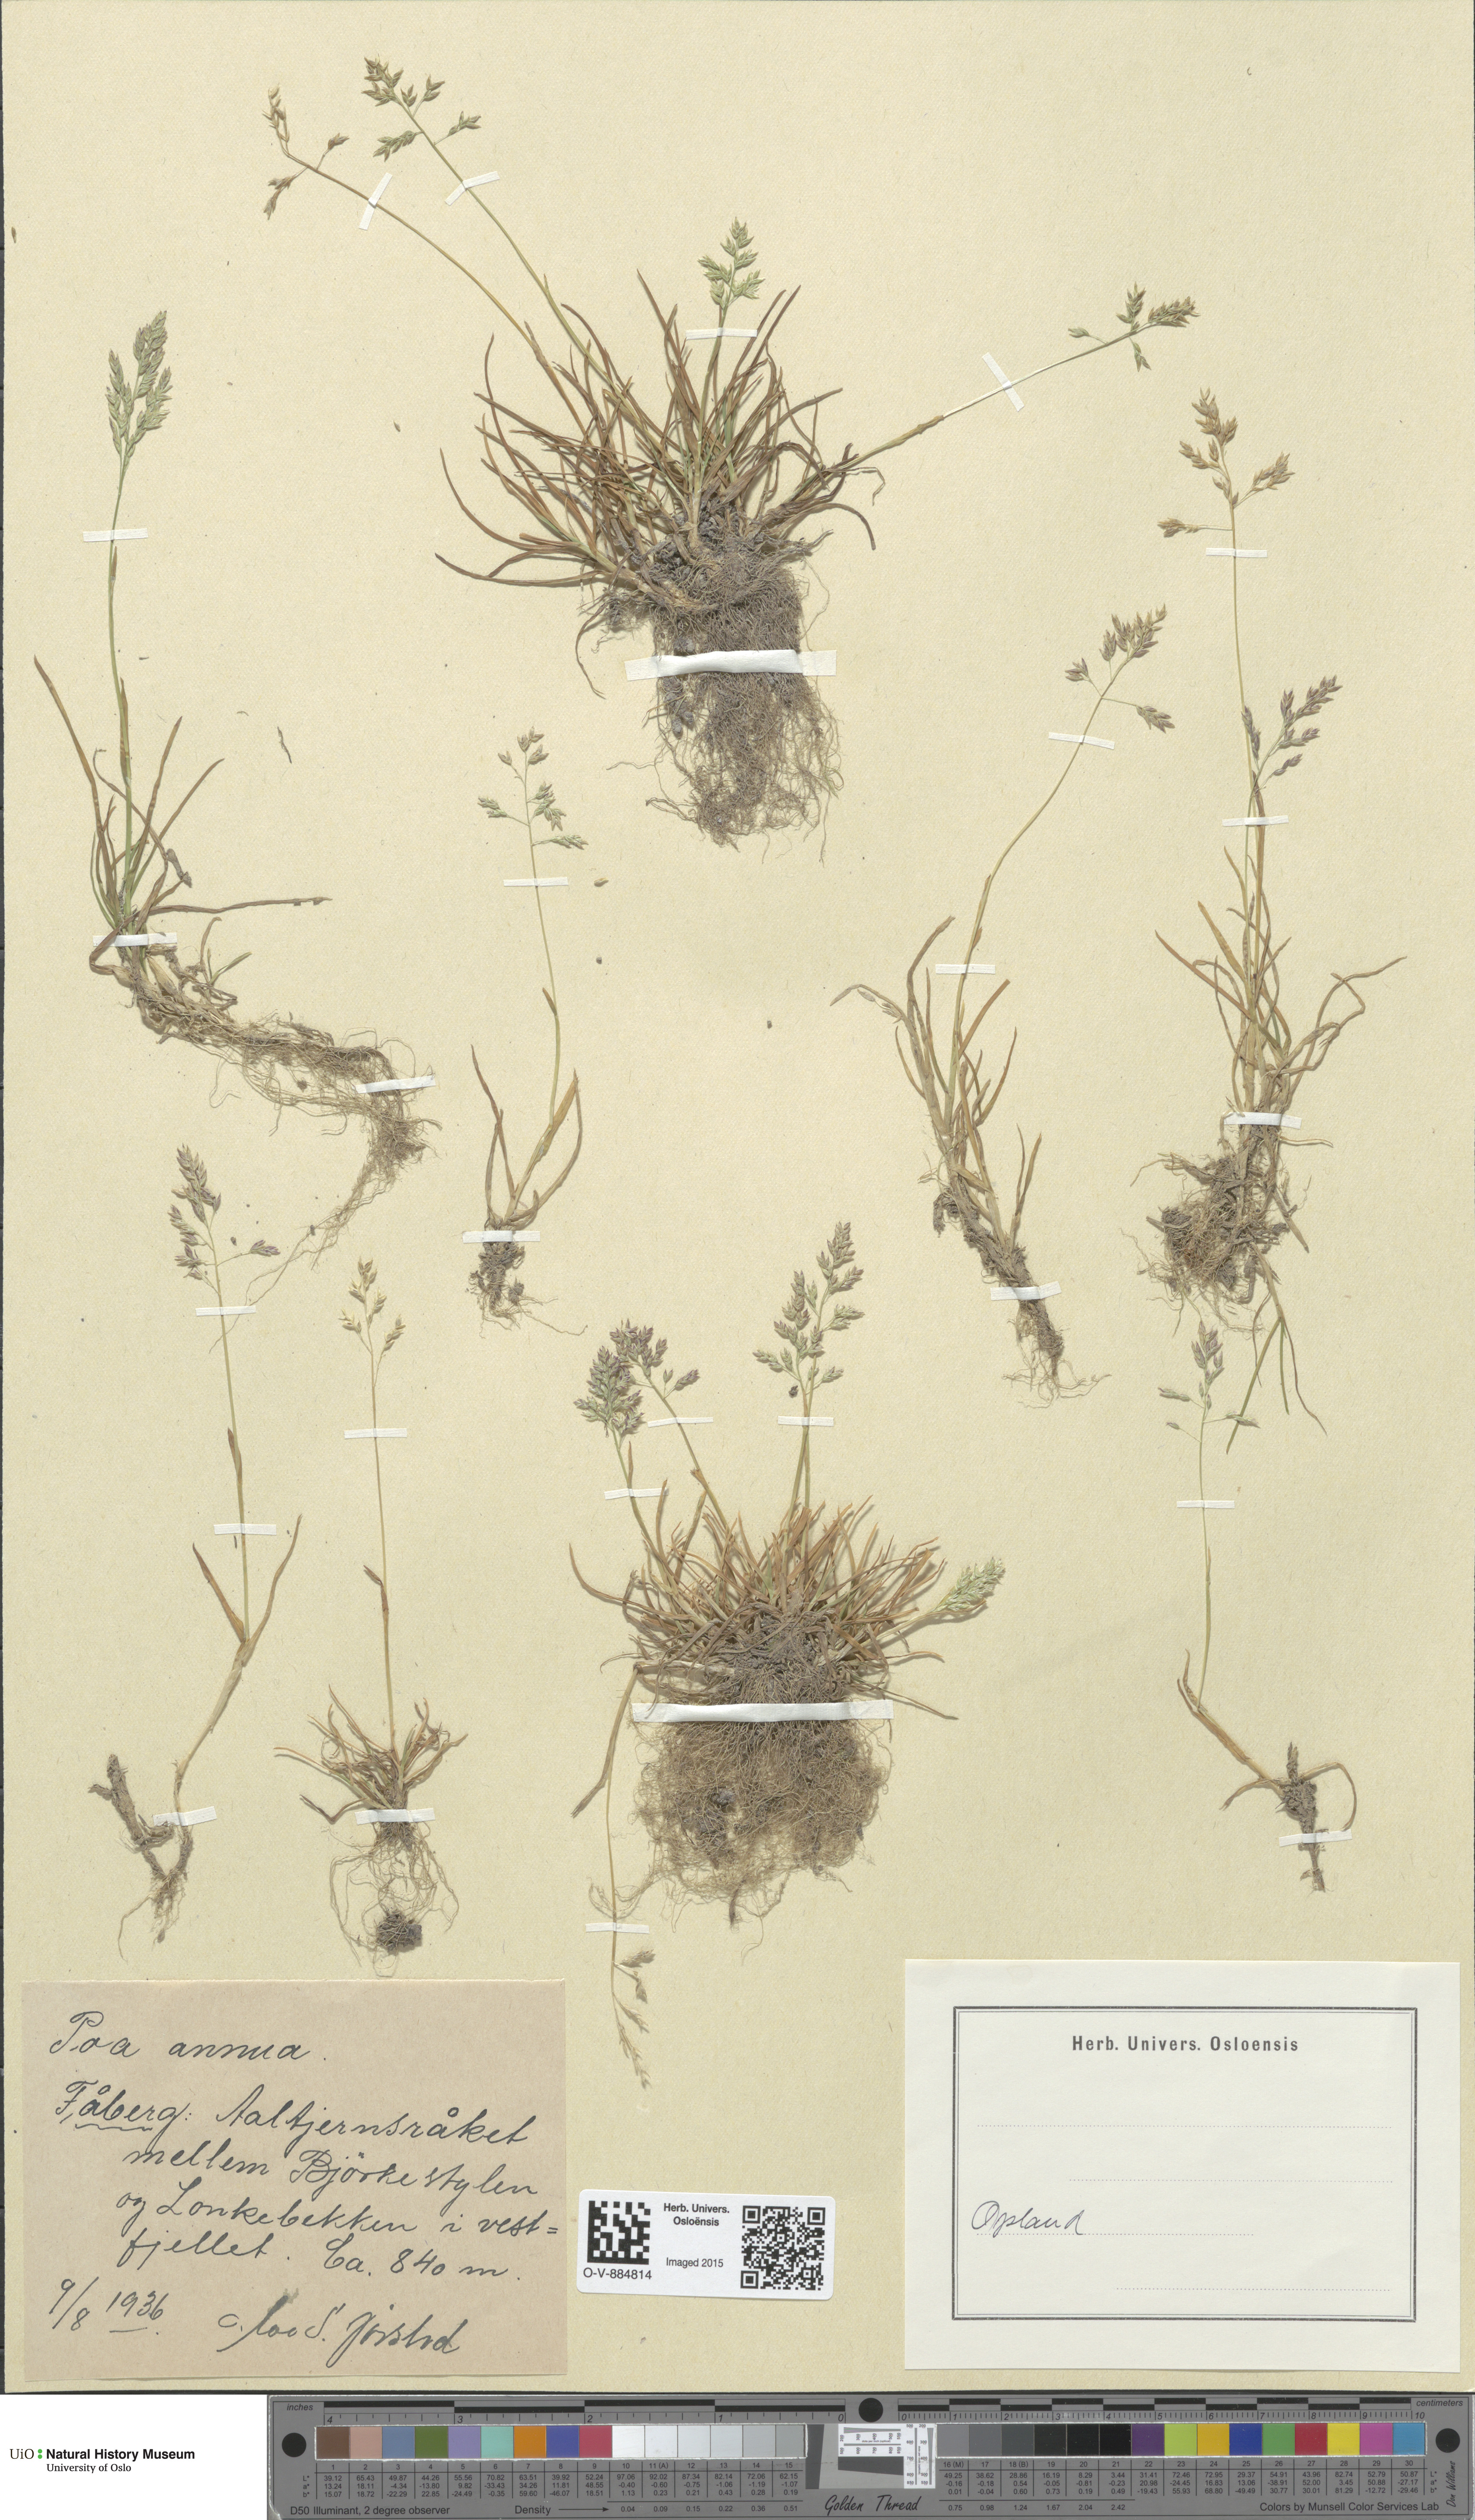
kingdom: Plantae
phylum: Tracheophyta
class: Liliopsida
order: Poales
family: Poaceae
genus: Poa
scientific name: Poa annua
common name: Annual bluegrass
